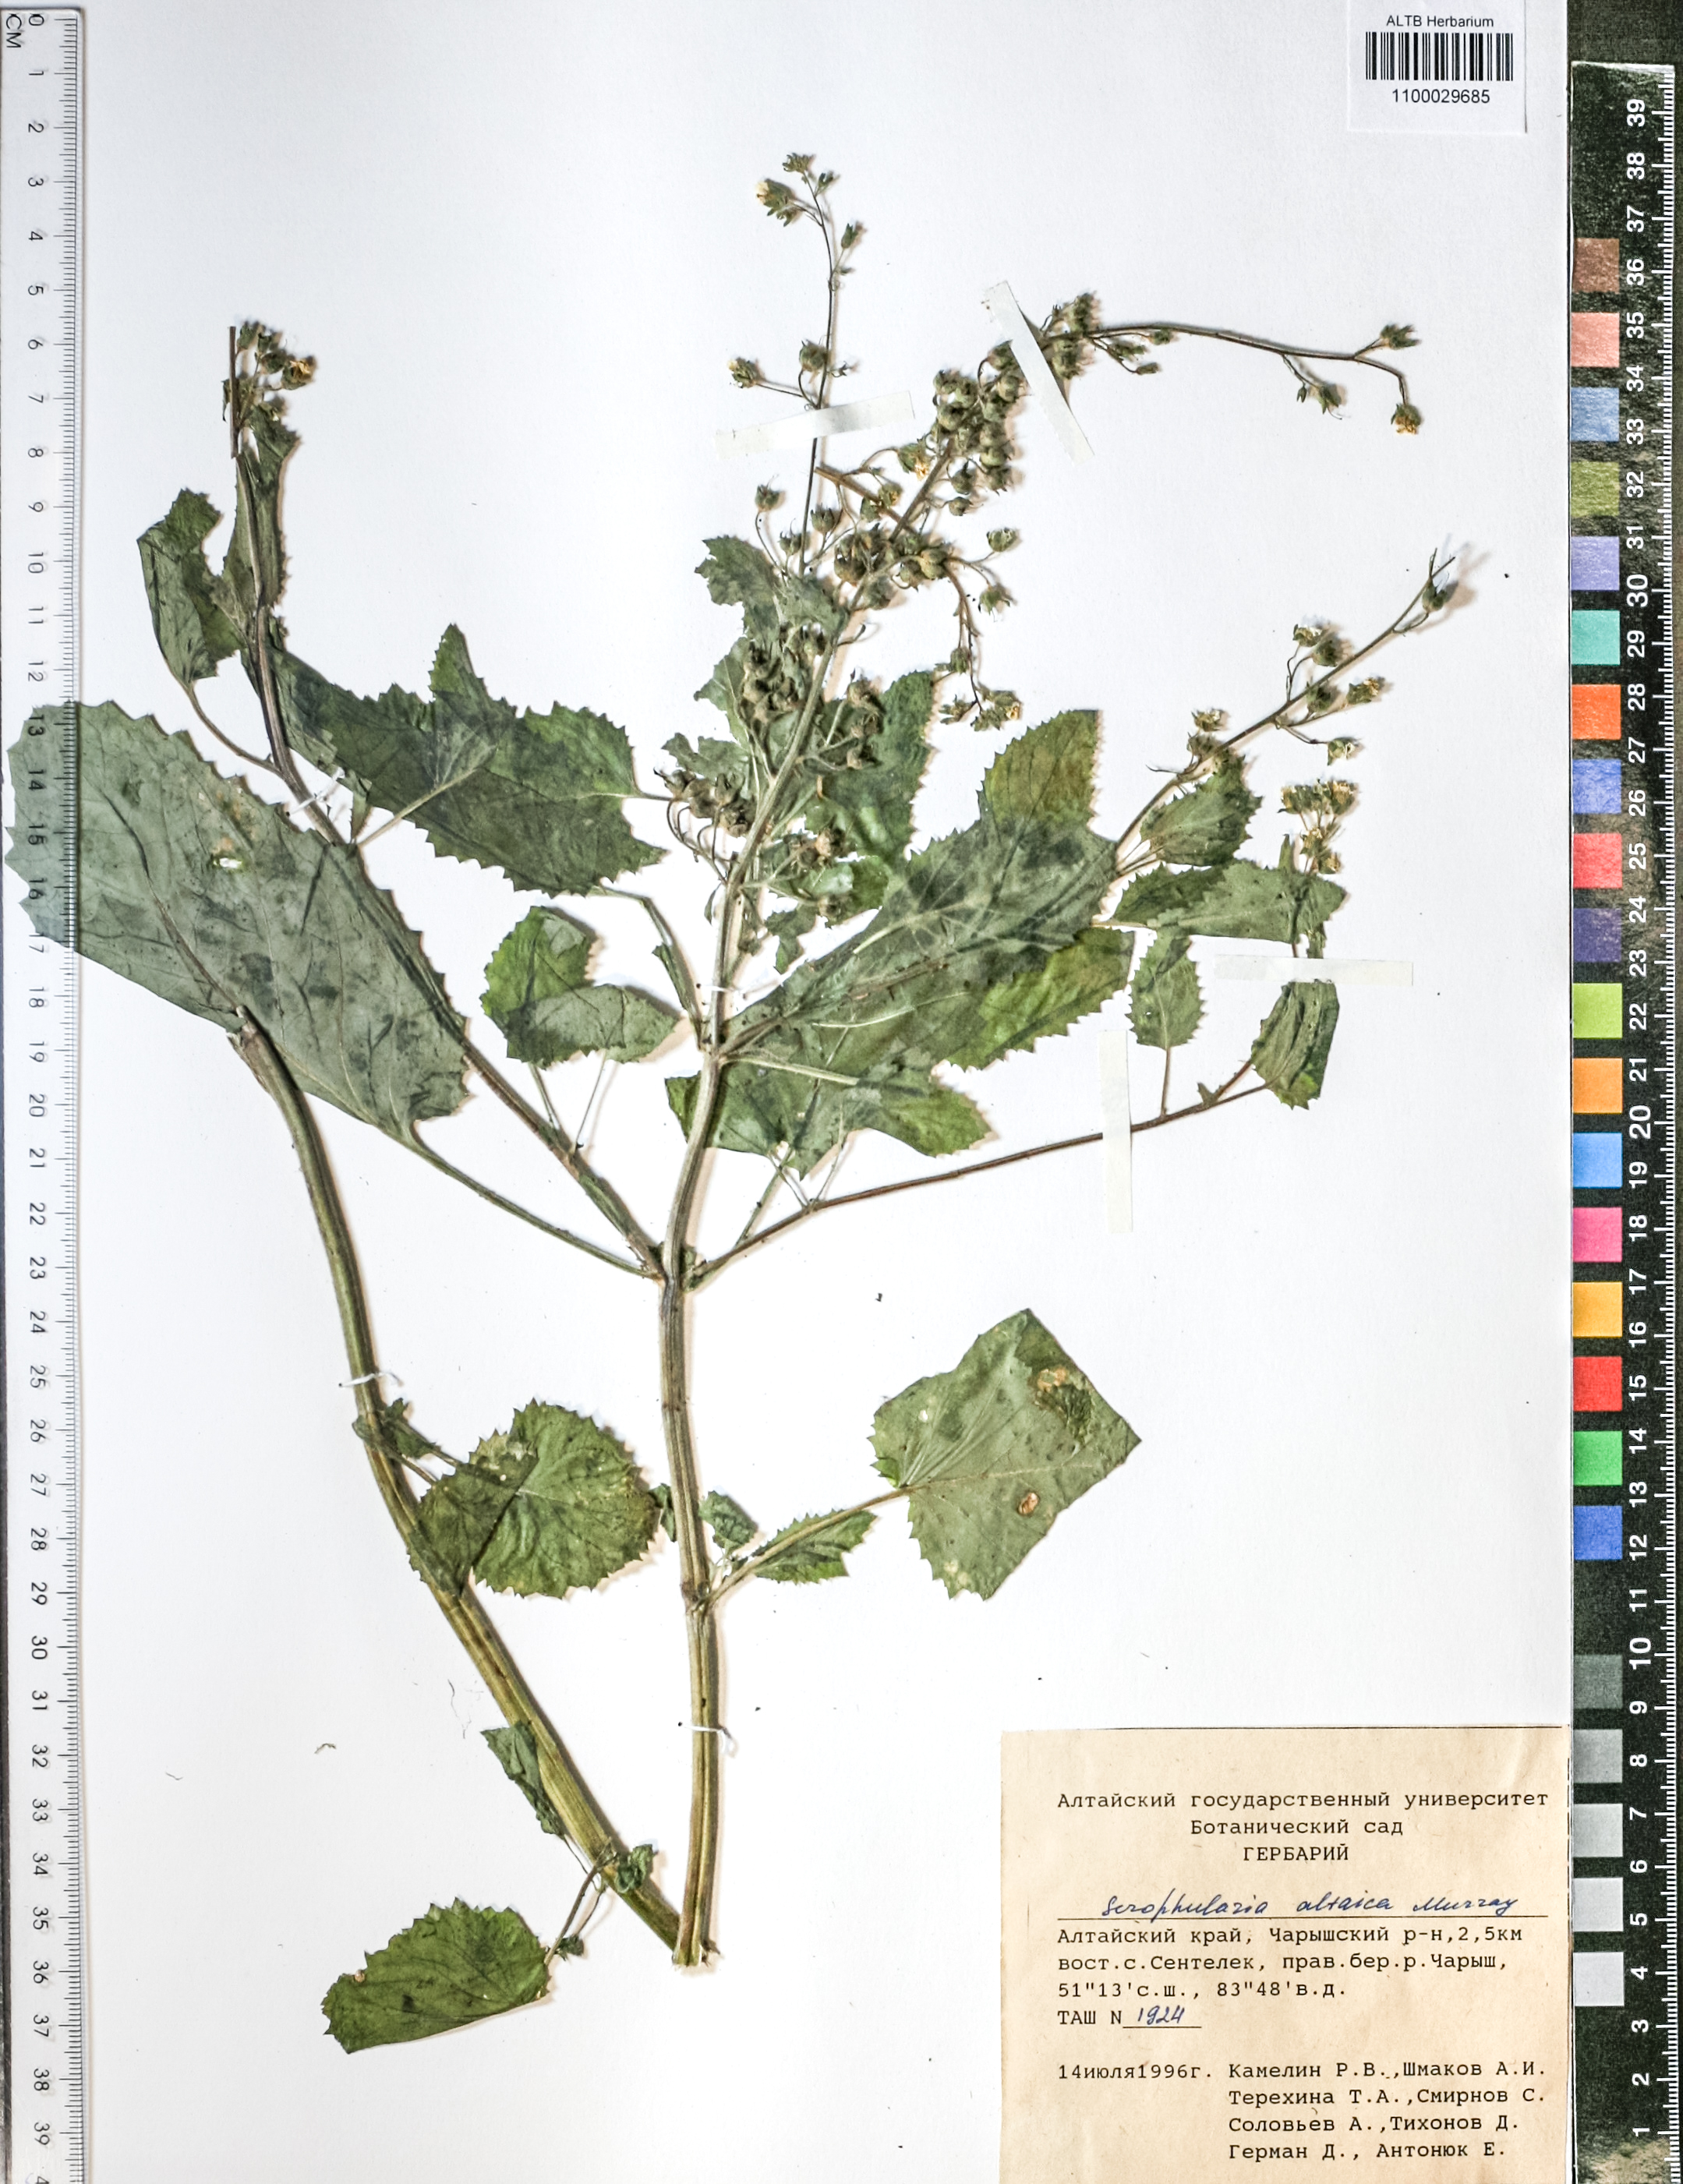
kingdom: Plantae
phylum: Tracheophyta
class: Magnoliopsida
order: Lamiales
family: Scrophulariaceae
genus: Scrophularia
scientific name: Scrophularia altaica
